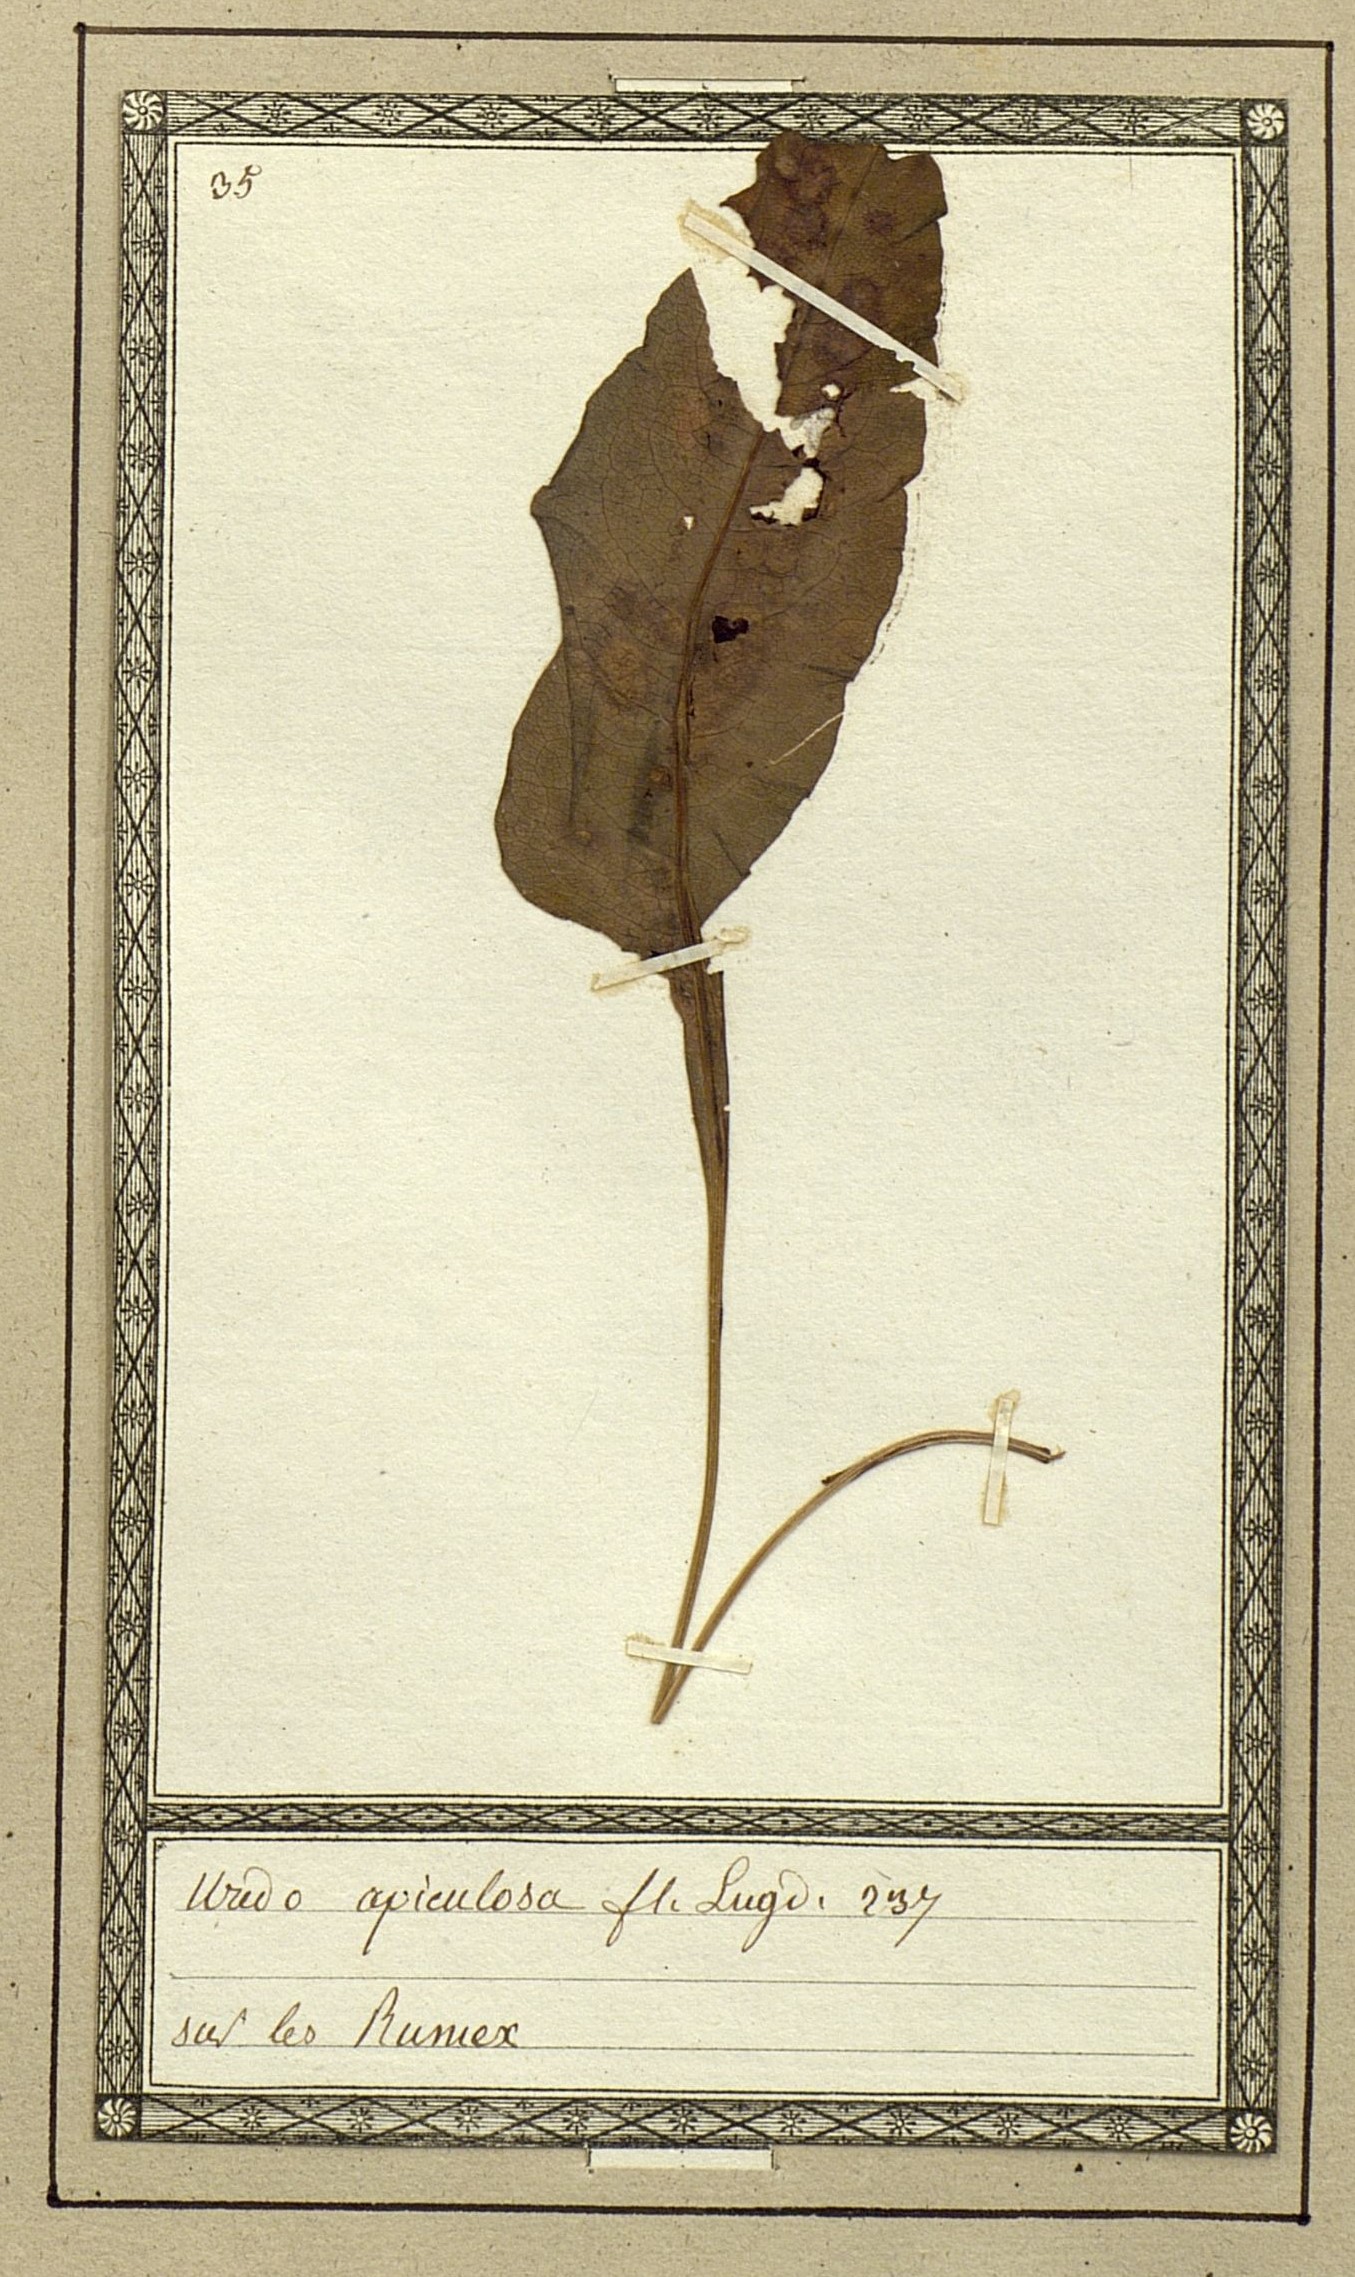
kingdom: Fungi
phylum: Basidiomycota
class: Pucciniomycetes
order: Pucciniales
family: Pucciniaceae
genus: Puccinia
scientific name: Puccinia acetosae
